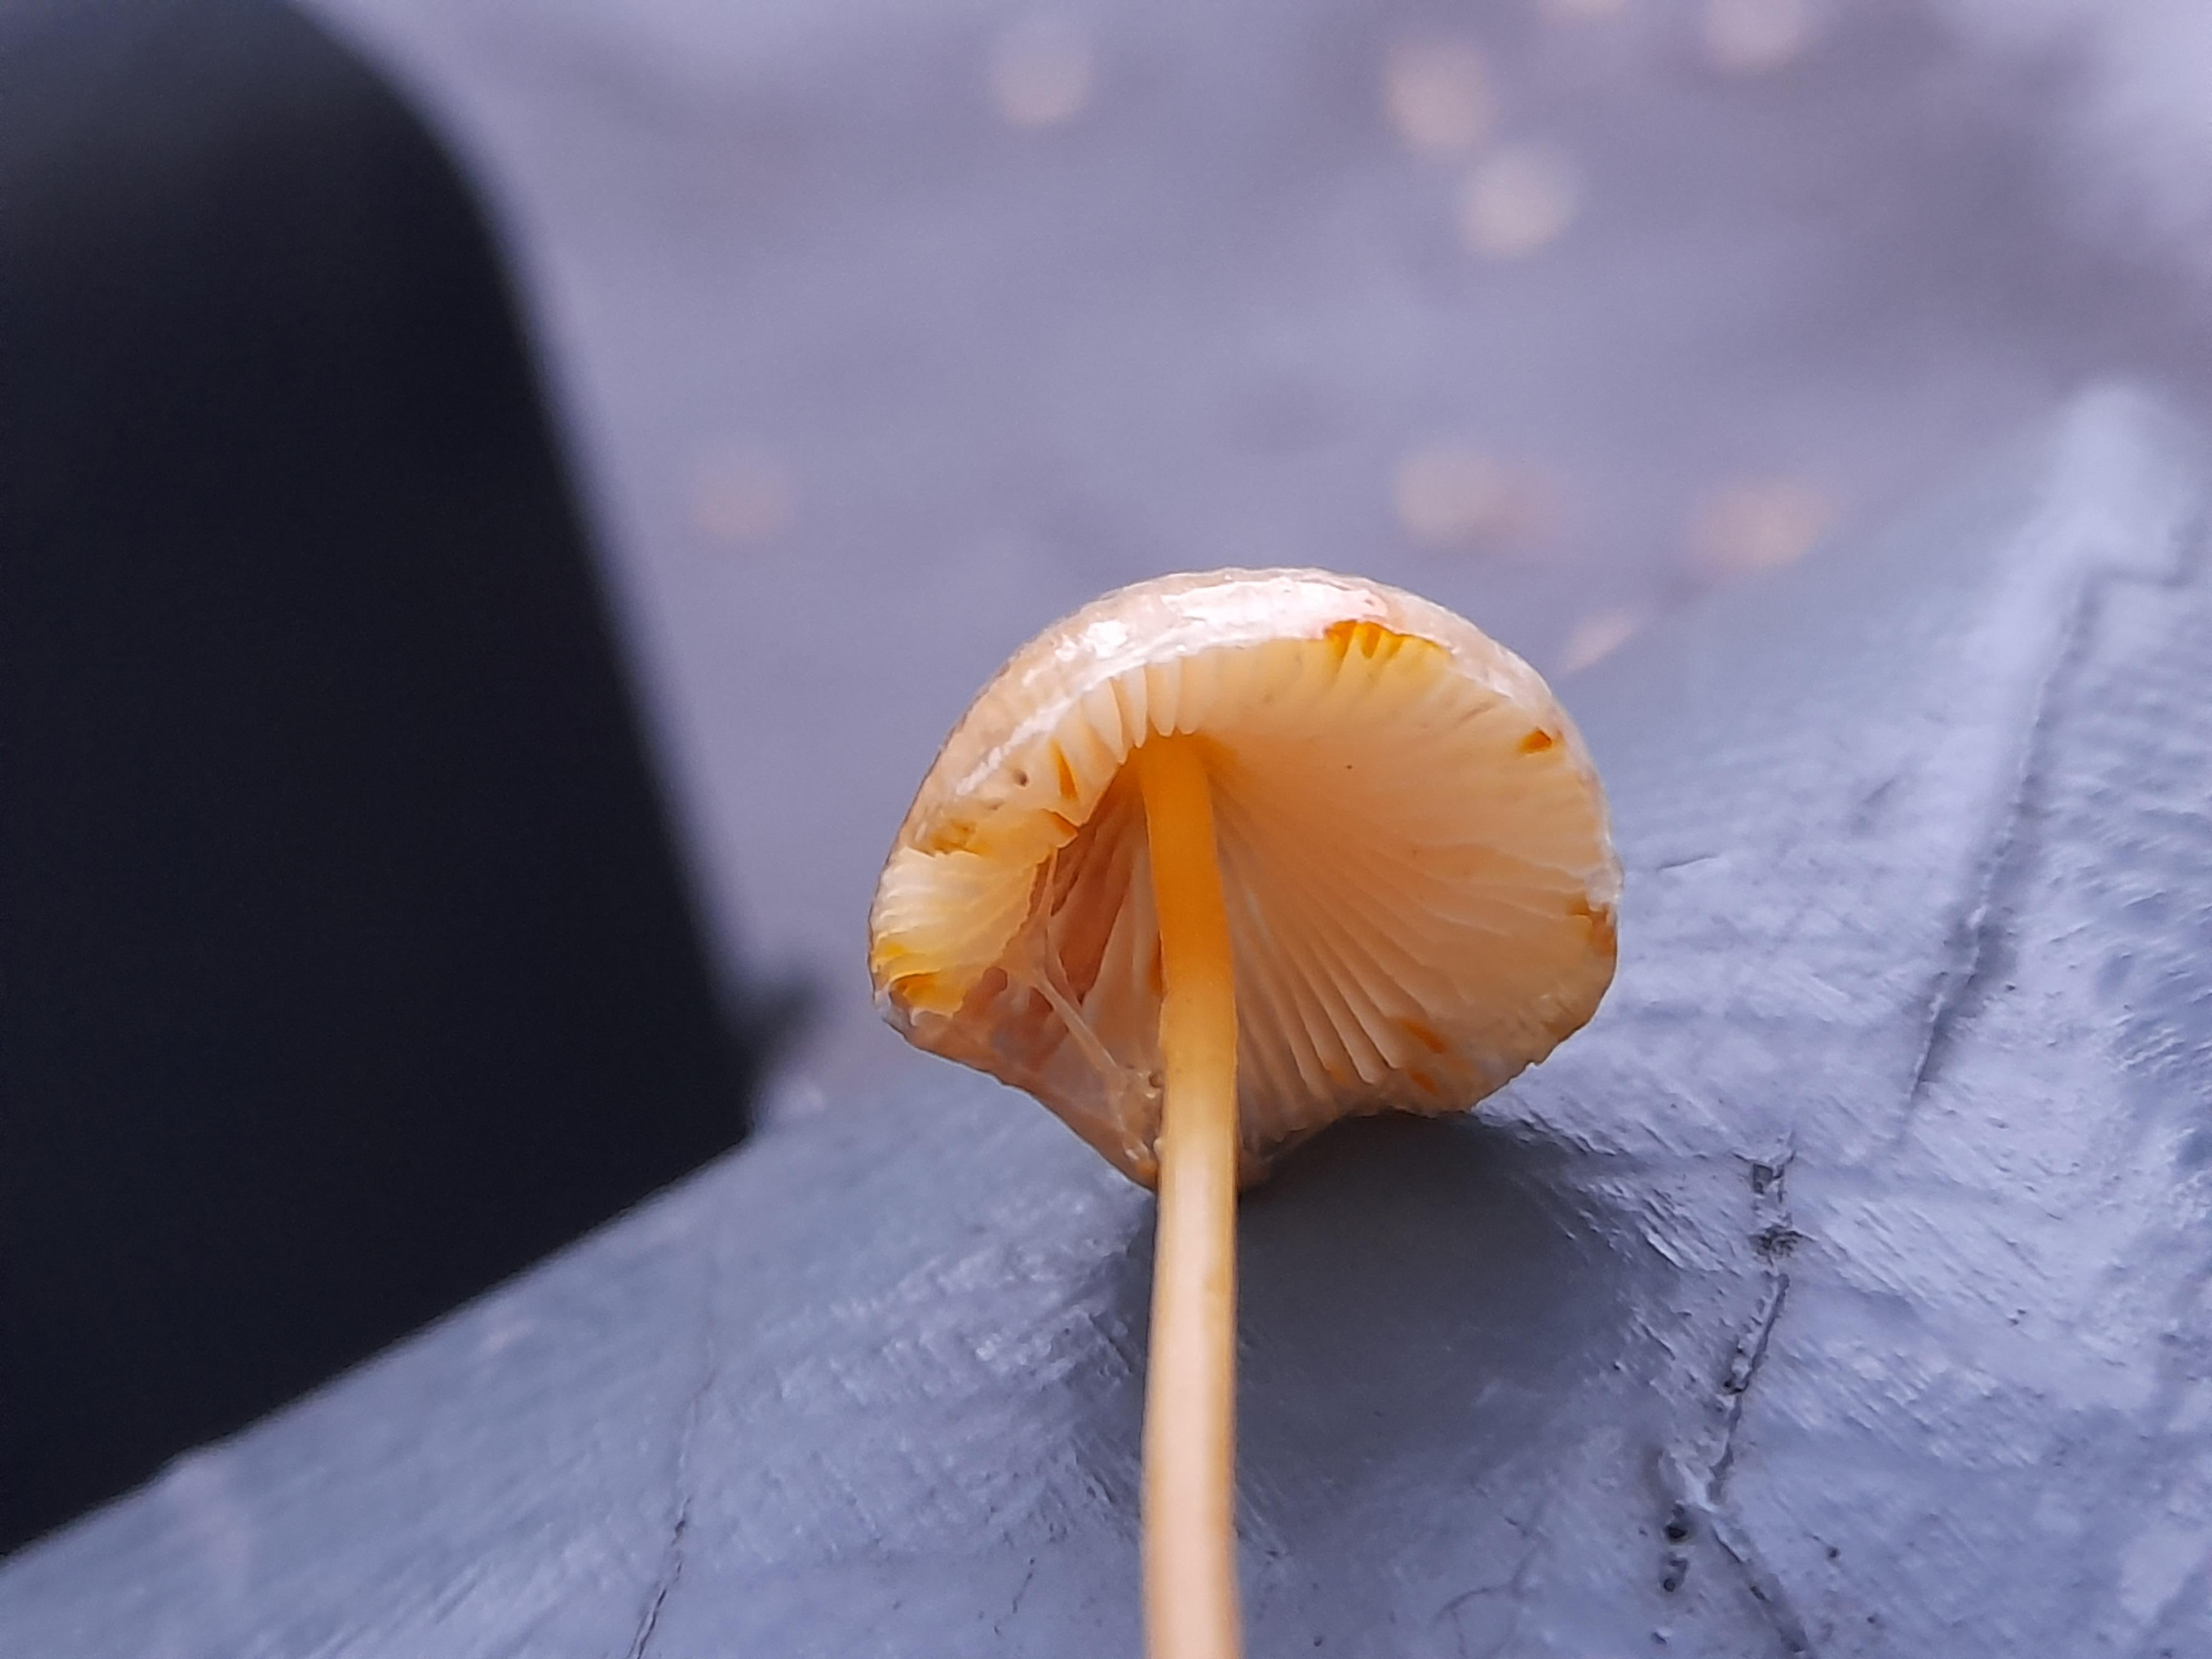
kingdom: Fungi
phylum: Basidiomycota
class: Agaricomycetes
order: Agaricales
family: Mycenaceae
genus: Mycena
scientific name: Mycena crocata
